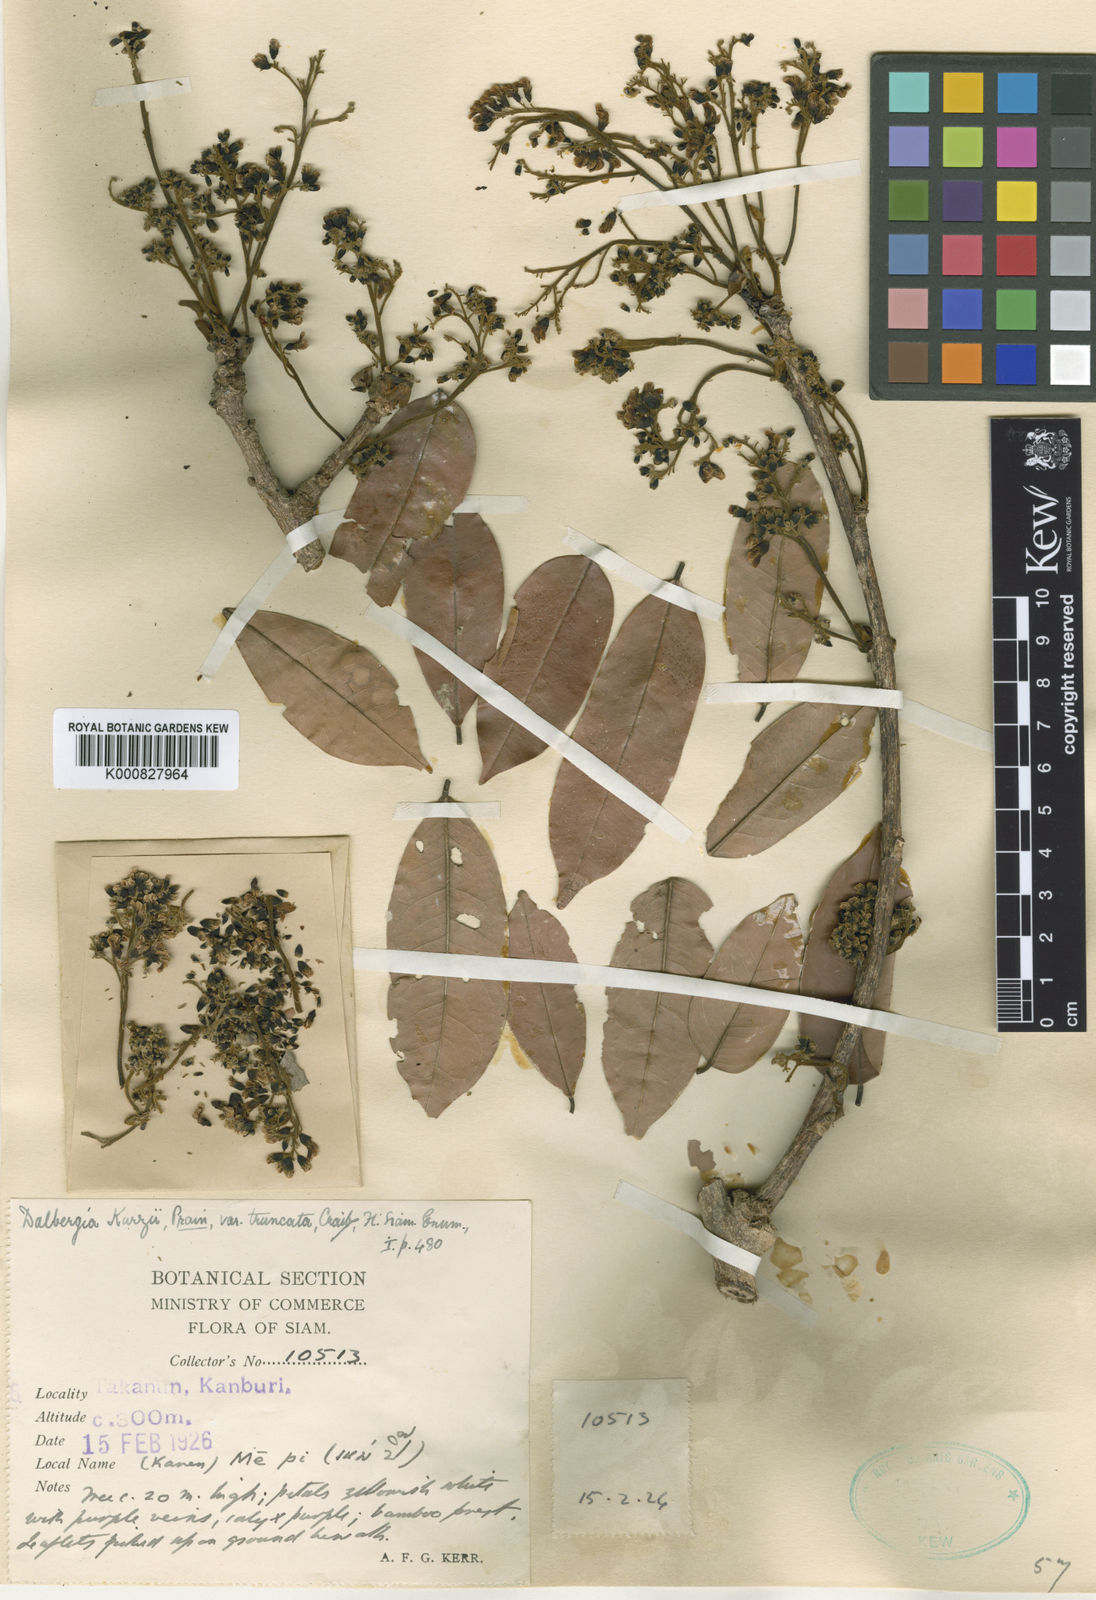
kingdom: Plantae
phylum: Tracheophyta
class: Magnoliopsida
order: Fabales
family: Fabaceae
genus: Dalbergia
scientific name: Dalbergia cana
